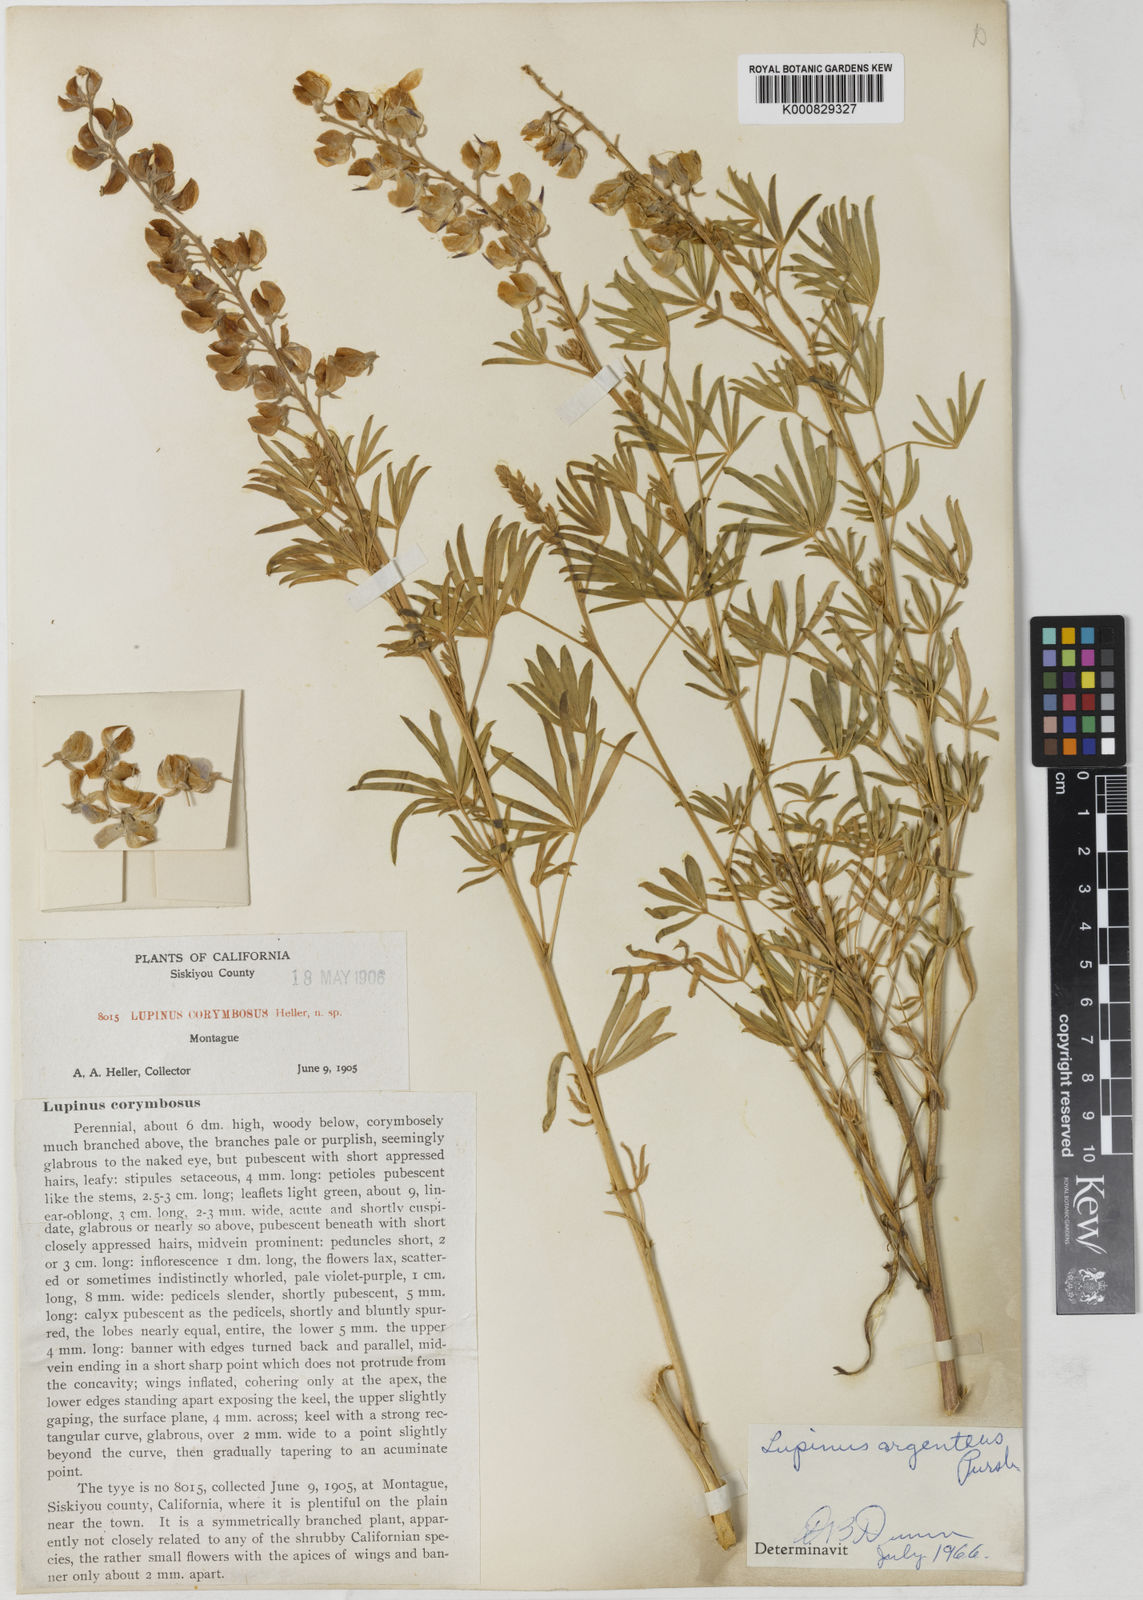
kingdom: Plantae
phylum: Tracheophyta
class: Magnoliopsida
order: Fabales
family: Fabaceae
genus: Lupinus
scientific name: Lupinus argenteus
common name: Silvery lupine
